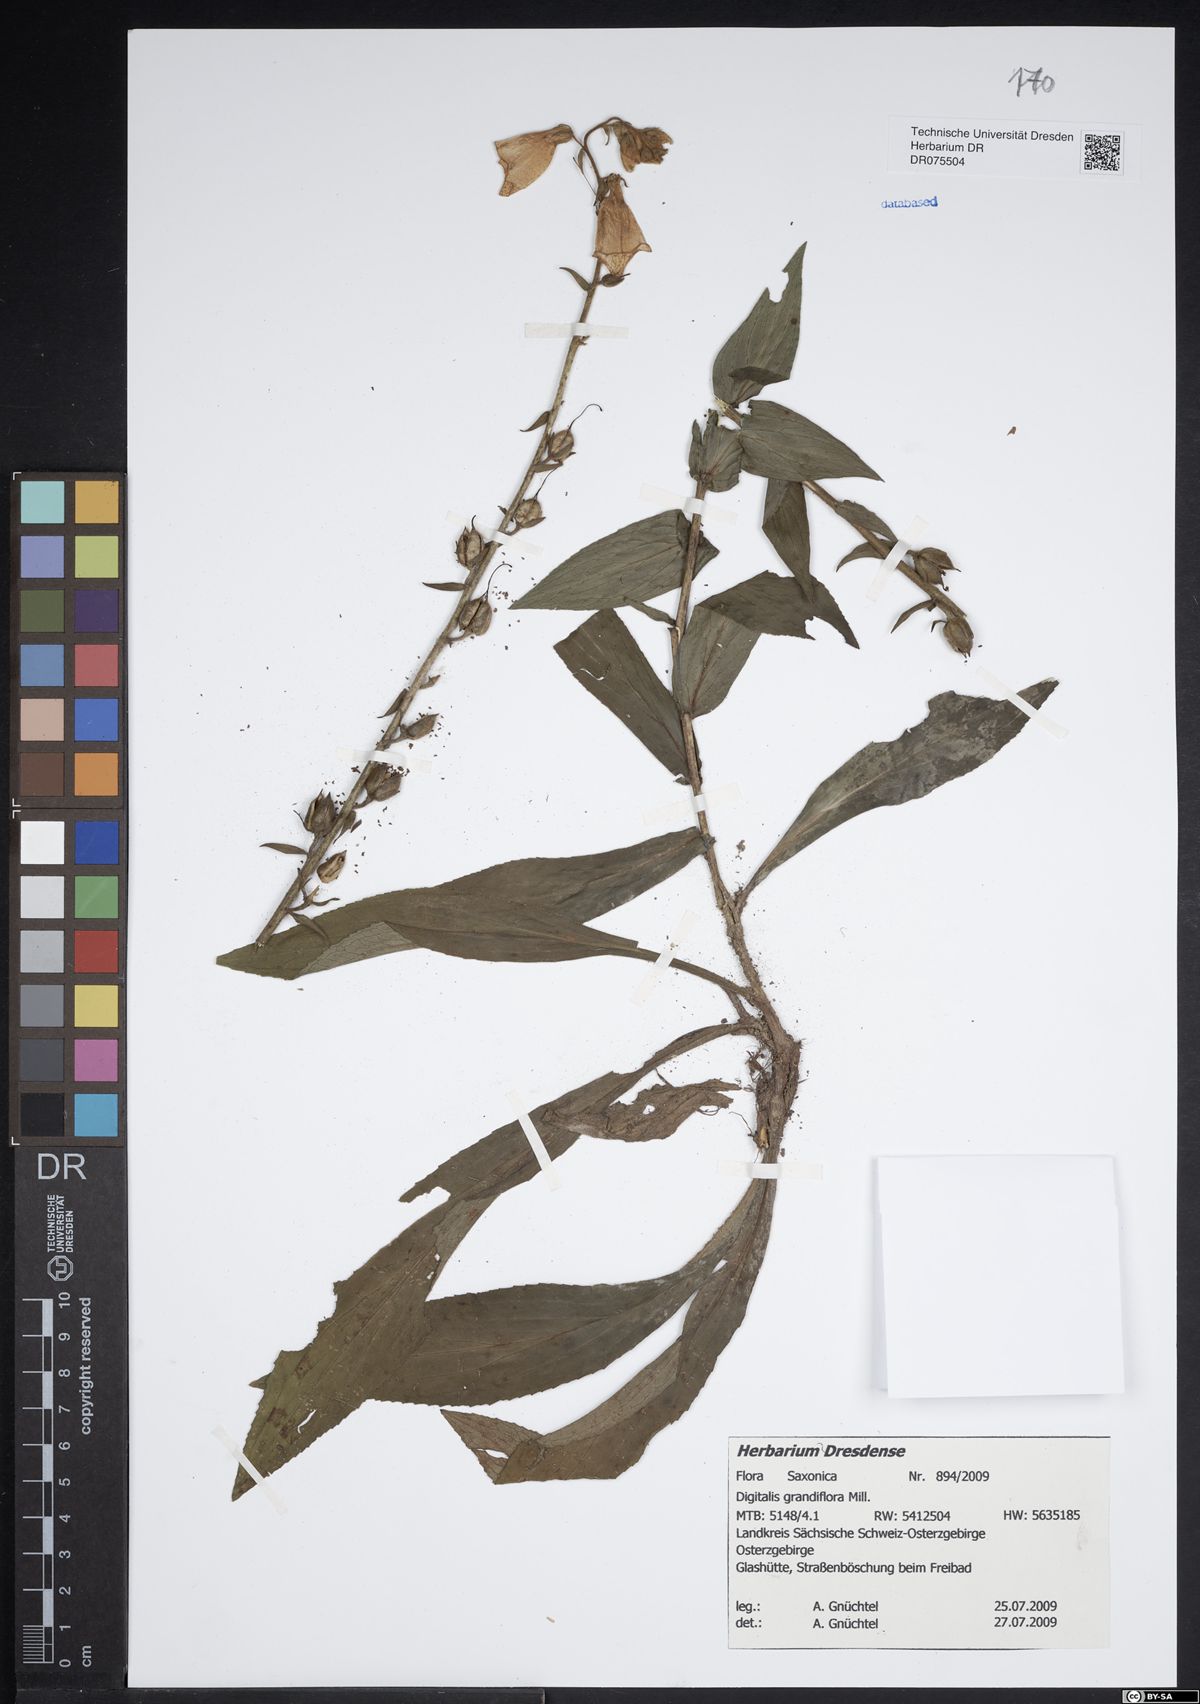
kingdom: Plantae
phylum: Tracheophyta
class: Magnoliopsida
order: Lamiales
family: Plantaginaceae
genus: Digitalis
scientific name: Digitalis grandiflora
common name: Yellow foxglove
